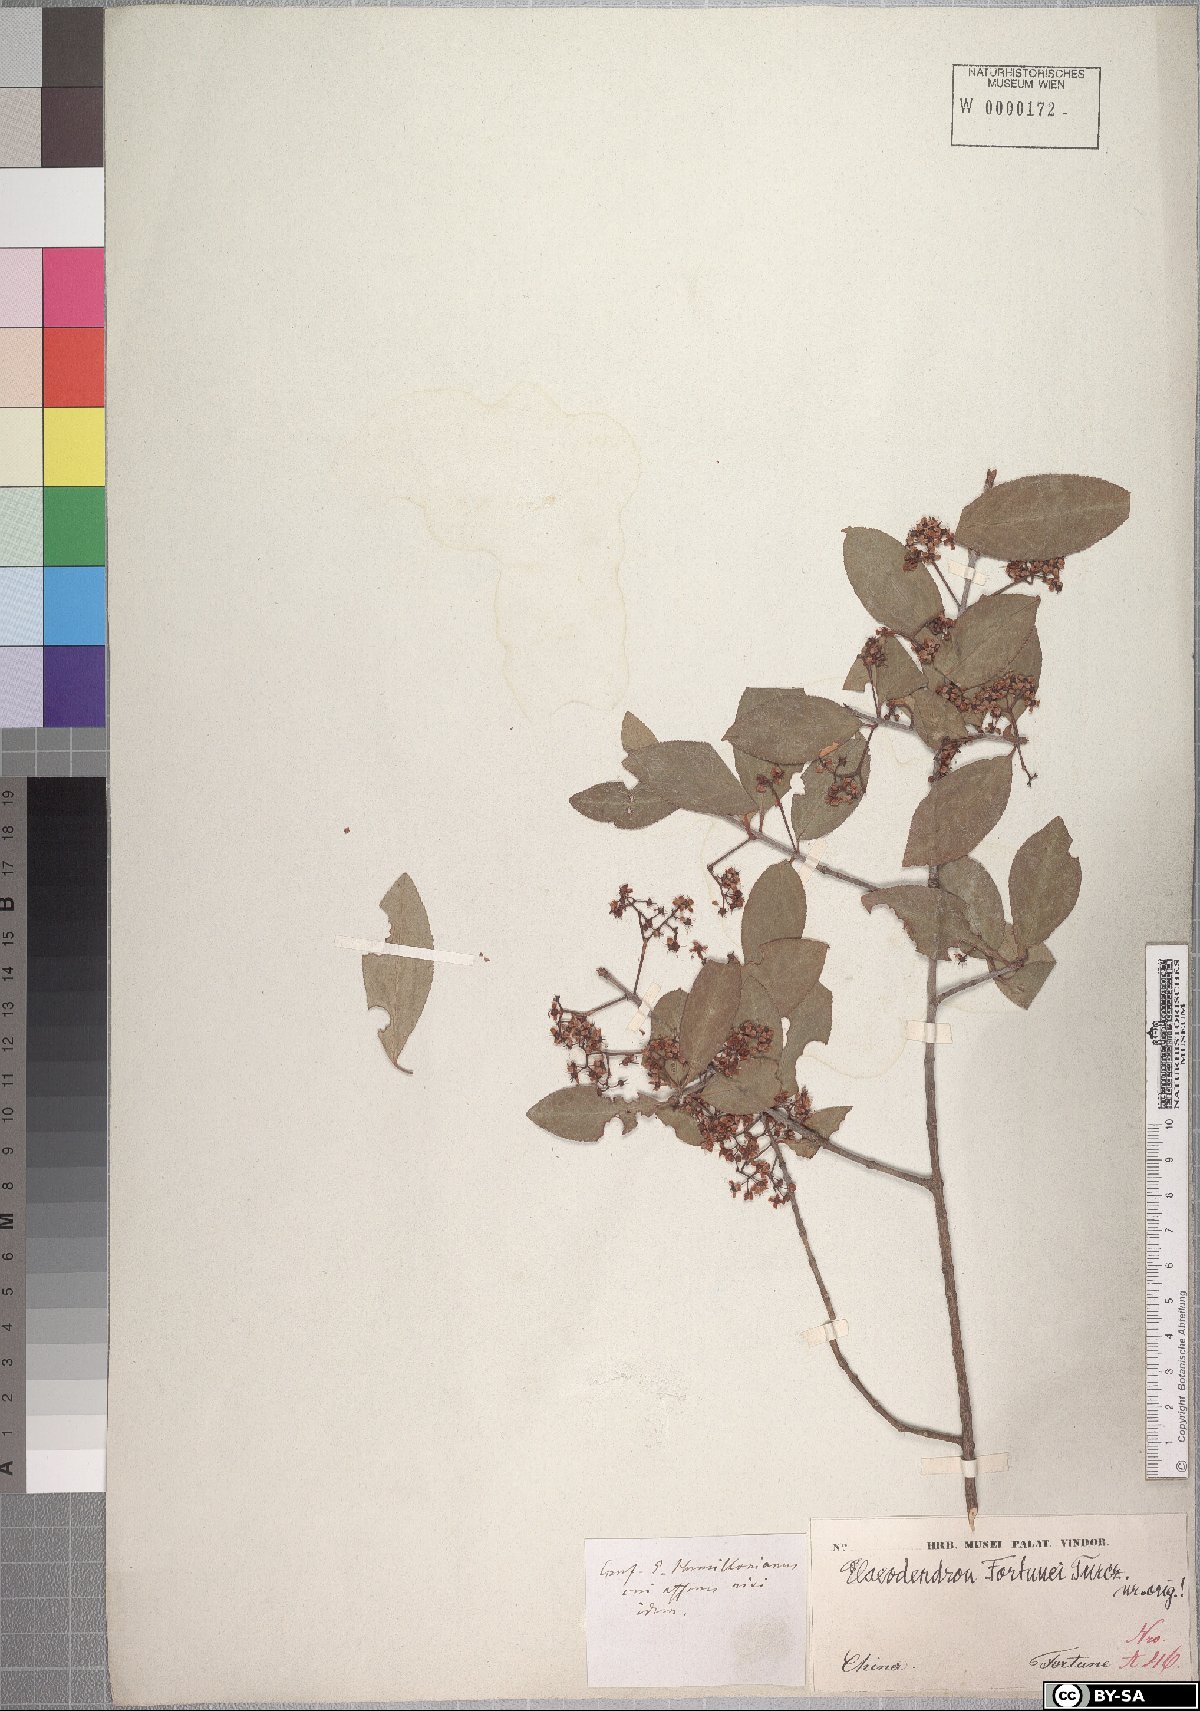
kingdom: Plantae
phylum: Tracheophyta
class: Magnoliopsida
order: Celastrales
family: Celastraceae
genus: Euonymus
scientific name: Euonymus fortunei
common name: Climbing euonymus
